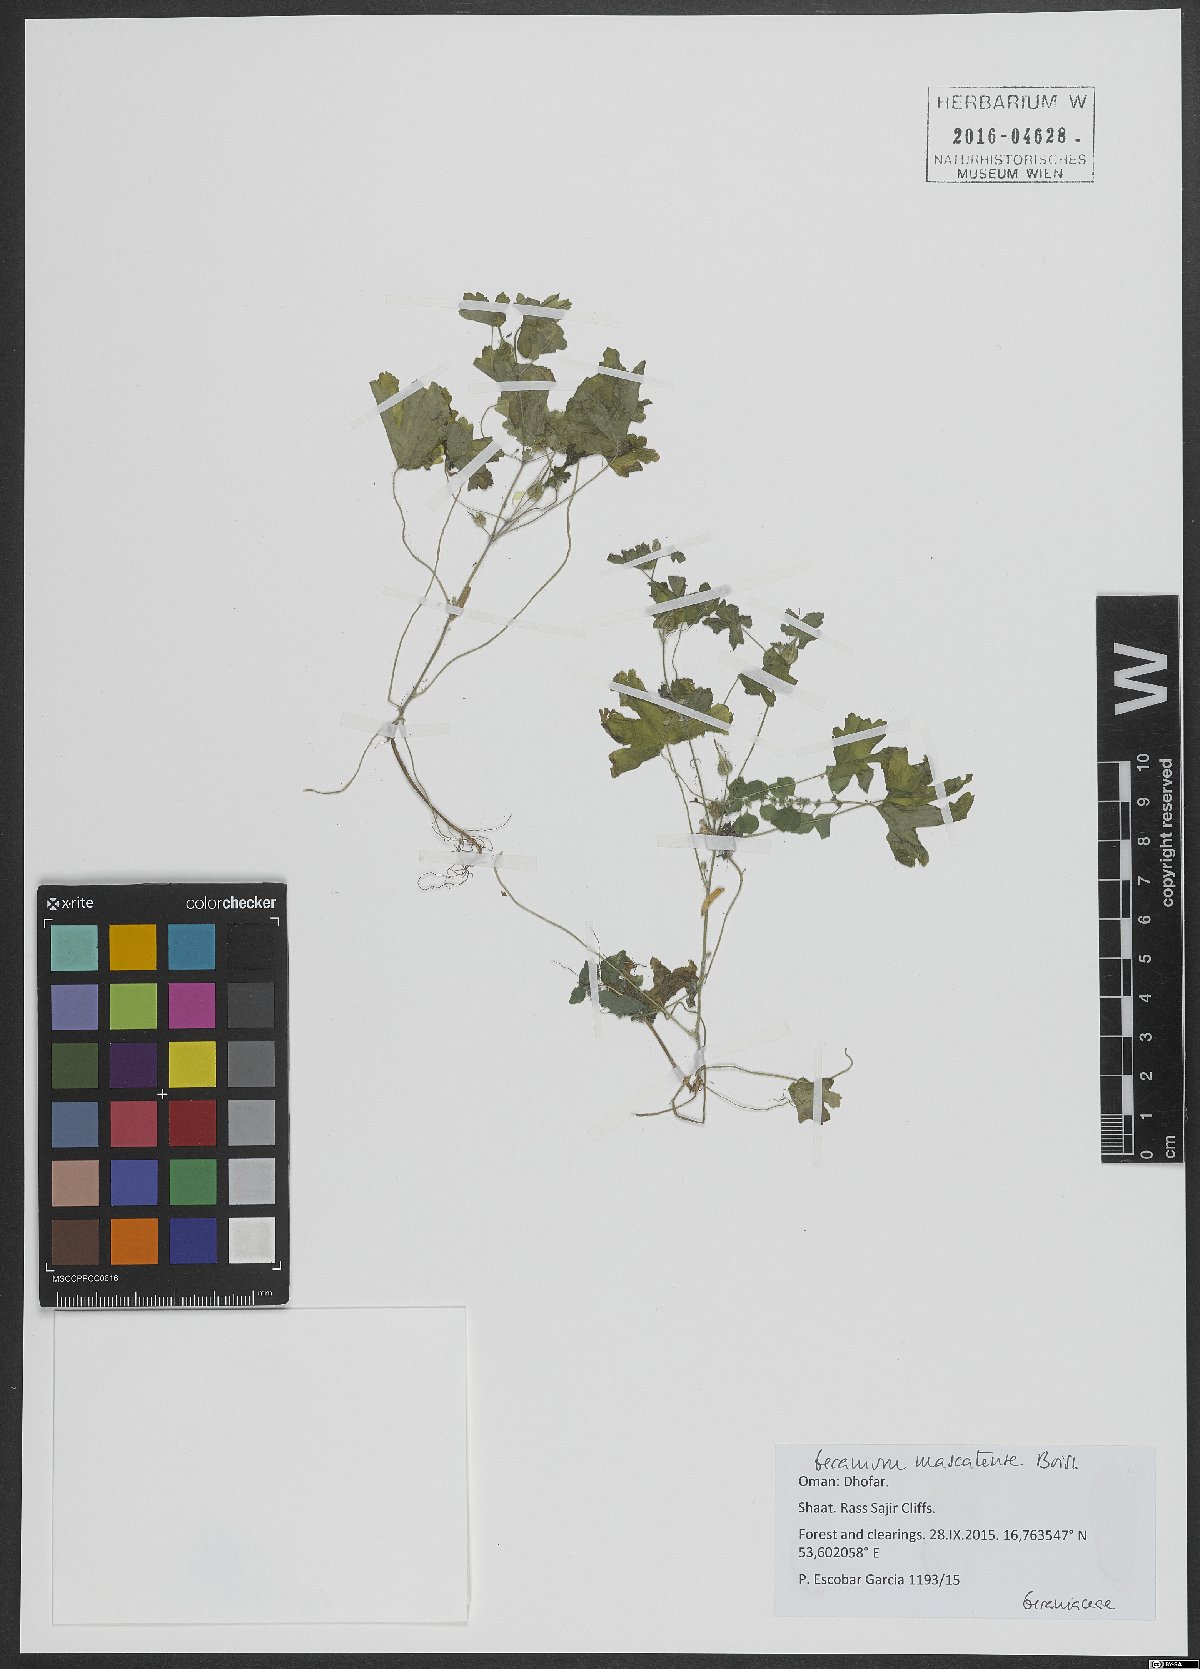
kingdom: Plantae
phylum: Tracheophyta
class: Magnoliopsida
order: Geraniales
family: Geraniaceae
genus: Geranium
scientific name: Geranium mascatense
